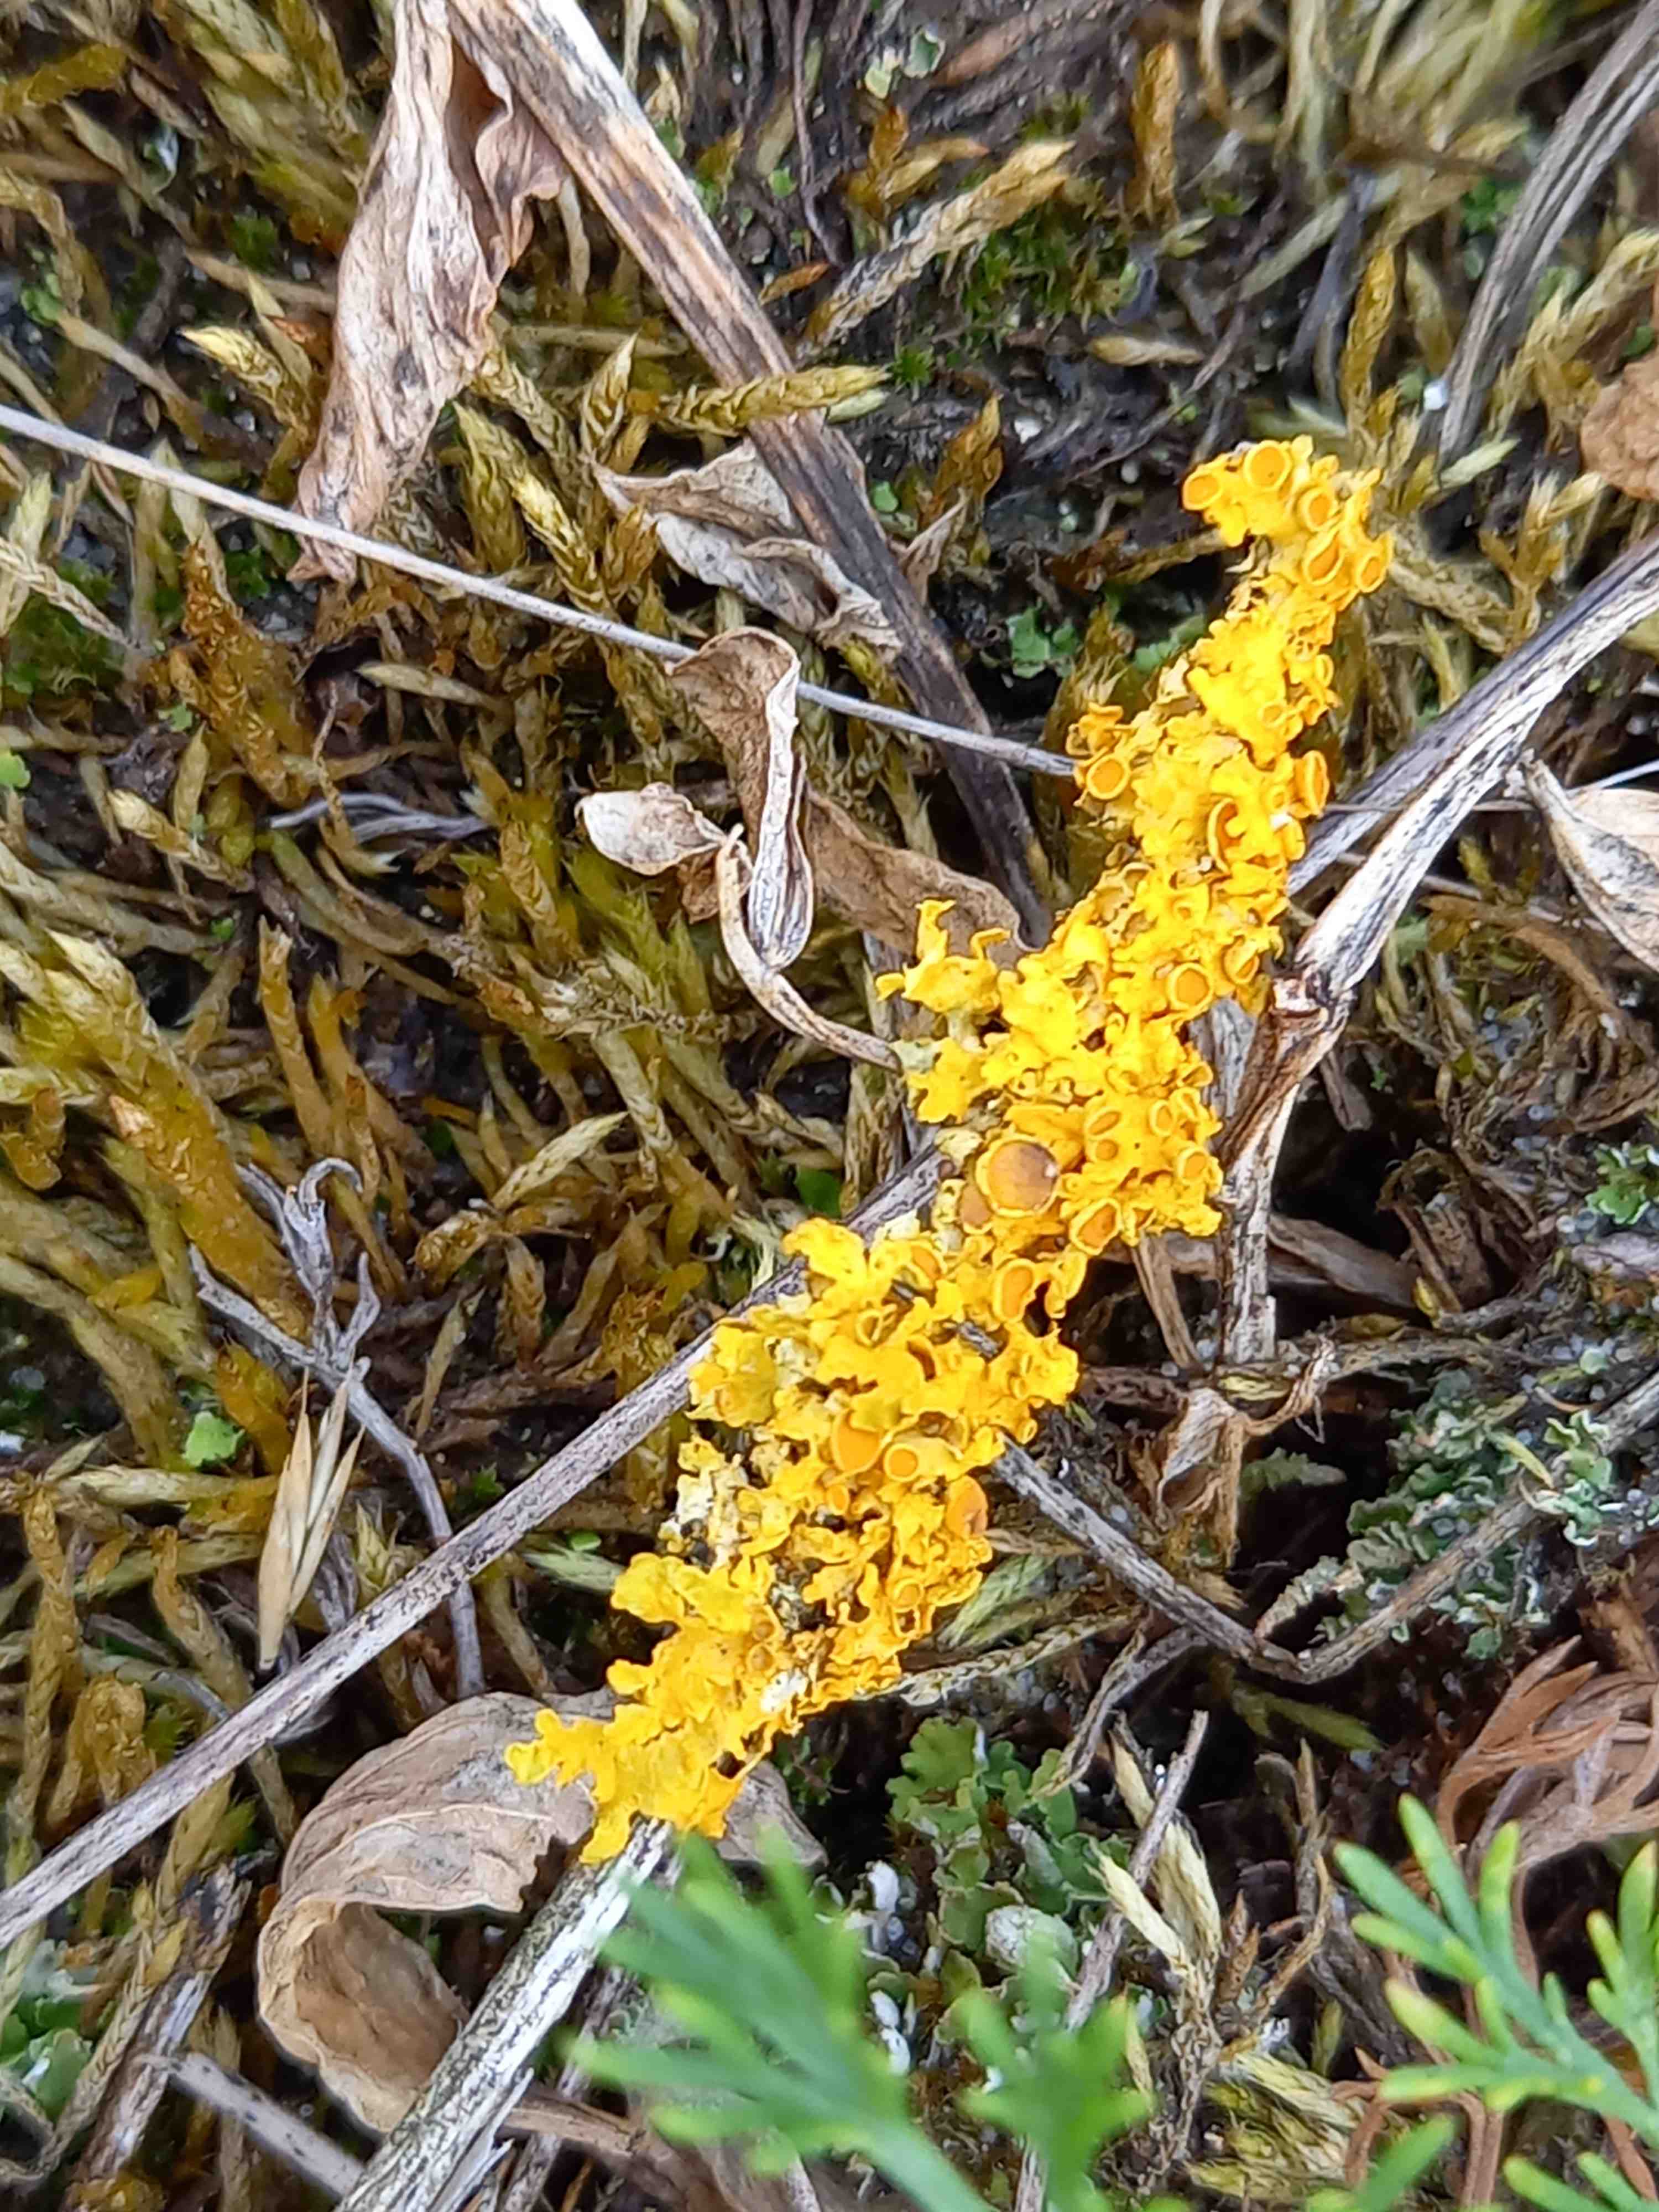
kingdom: Fungi
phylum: Ascomycota
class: Lecanoromycetes
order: Teloschistales
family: Teloschistaceae
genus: Xanthoria
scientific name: Xanthoria parietina
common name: almindelig væggelav
